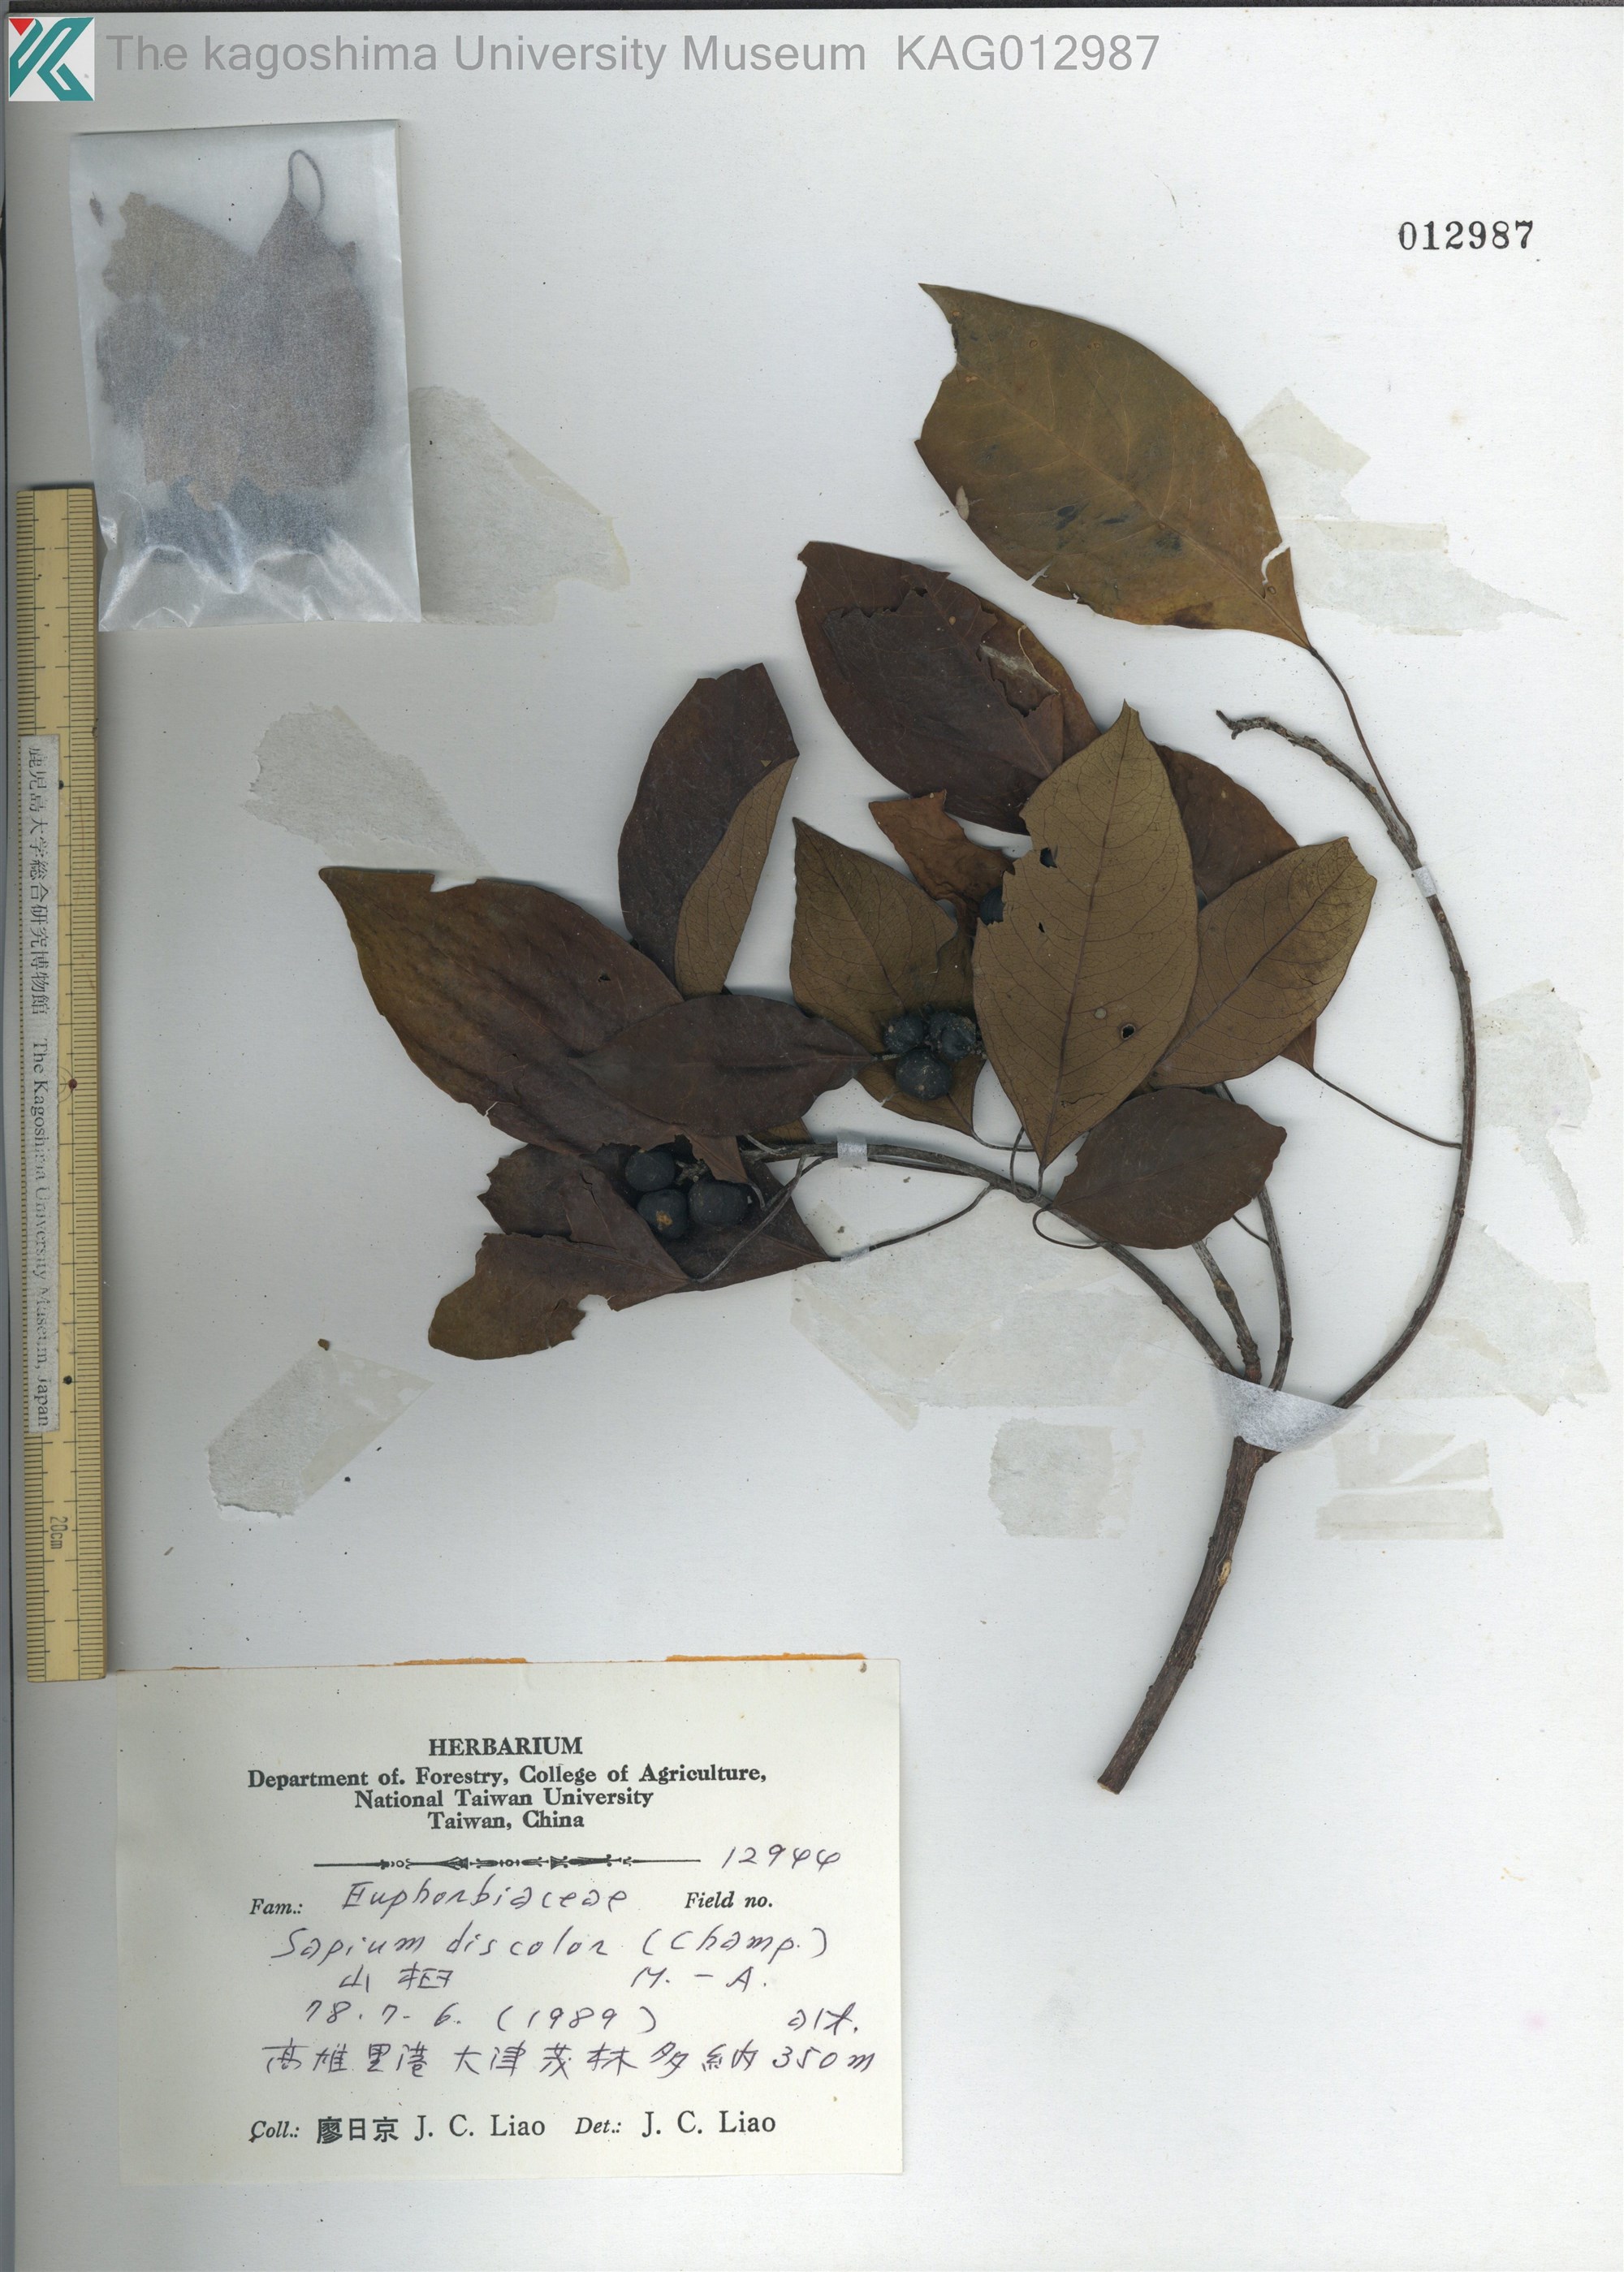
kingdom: Plantae
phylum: Tracheophyta
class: Magnoliopsida
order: Malpighiales
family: Euphorbiaceae
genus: Triadica
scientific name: Triadica cochinchinensis
